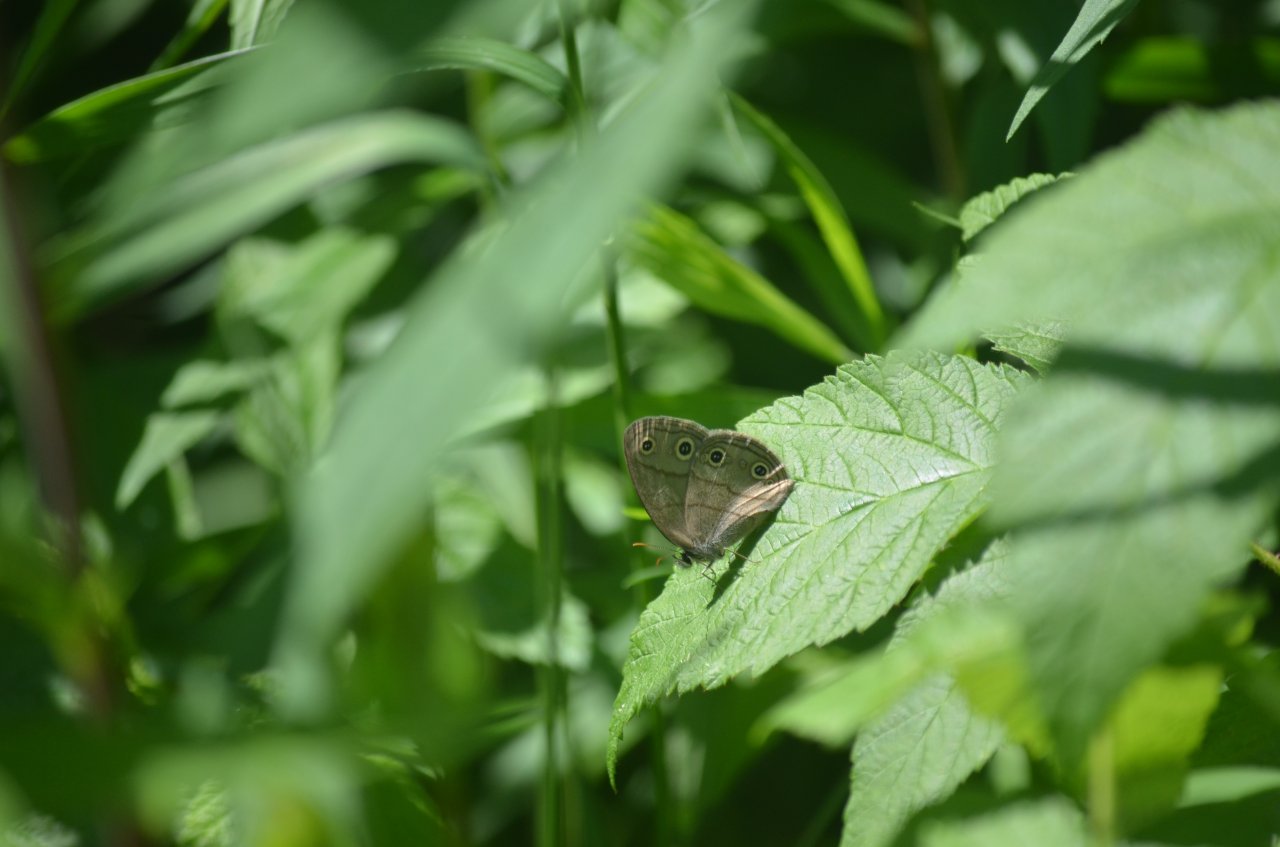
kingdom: Animalia
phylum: Arthropoda
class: Insecta
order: Lepidoptera
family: Nymphalidae
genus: Euptychia
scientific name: Euptychia cymela
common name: Little Wood Satyr
